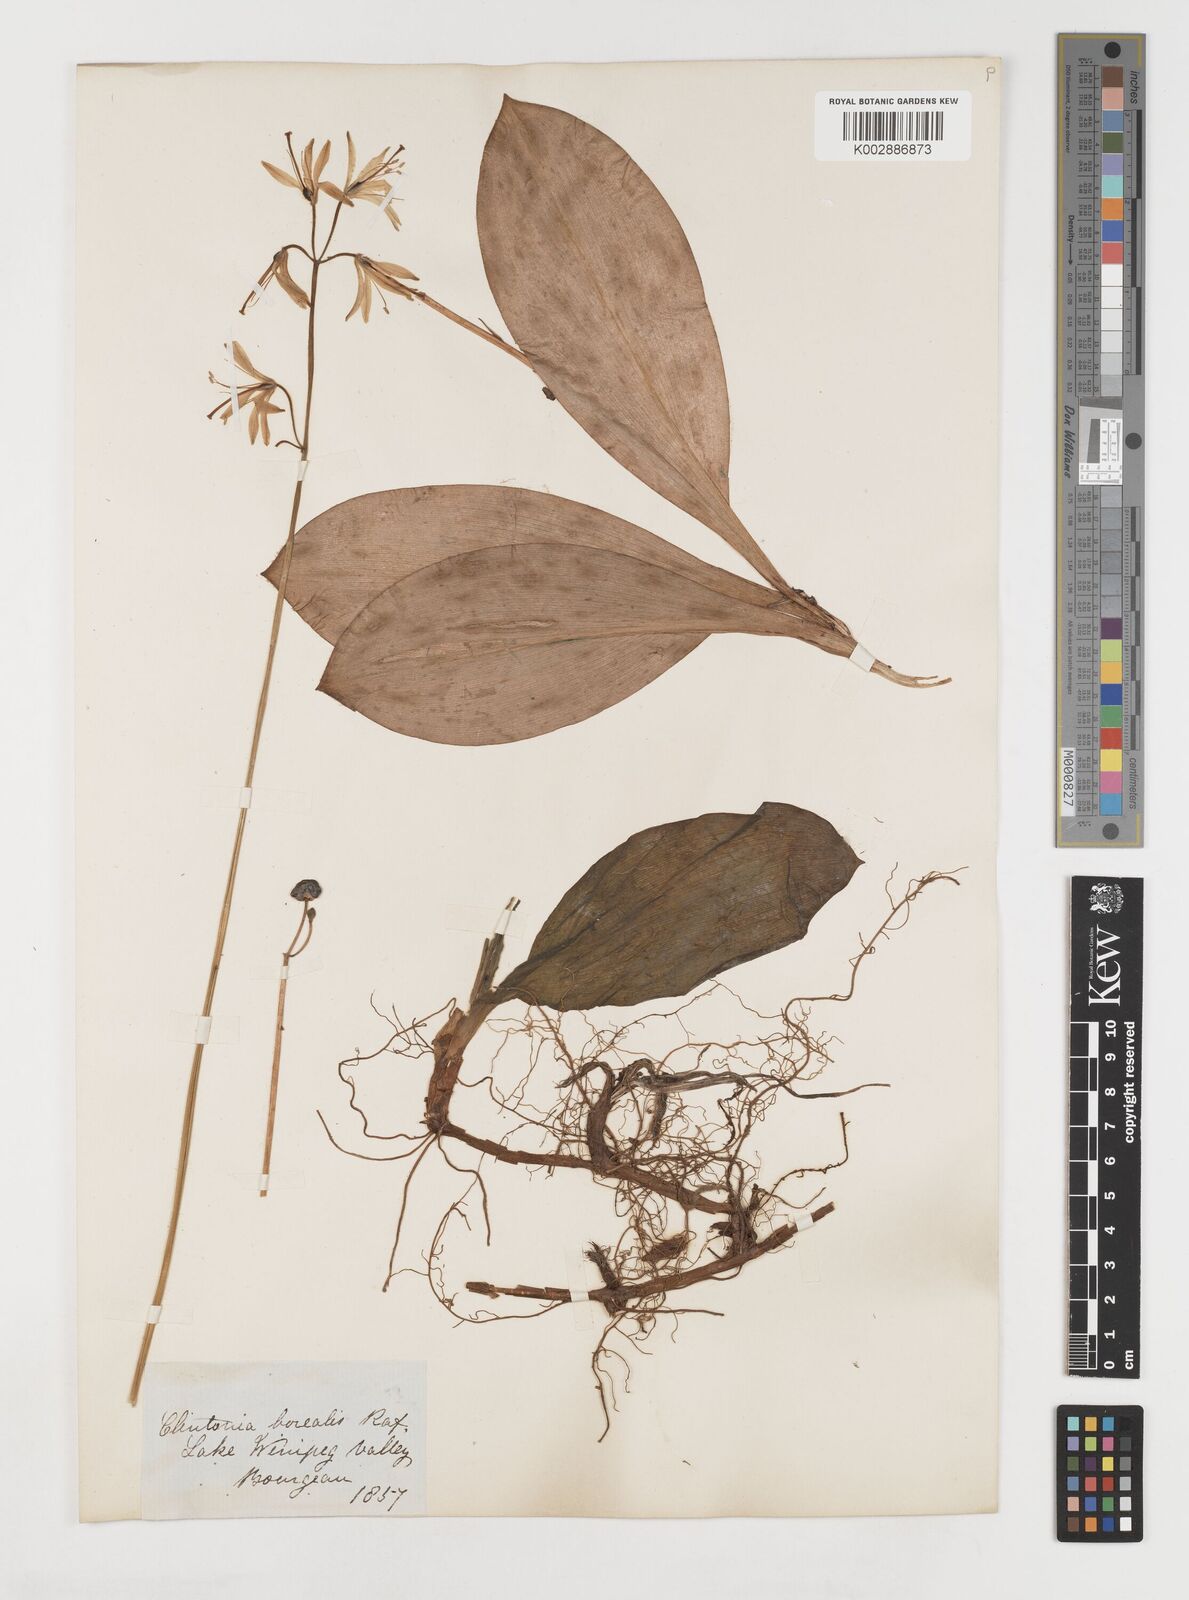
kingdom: Plantae
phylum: Tracheophyta
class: Liliopsida
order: Liliales
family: Liliaceae
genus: Clintonia
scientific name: Clintonia borealis
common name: Yellow clintonia
